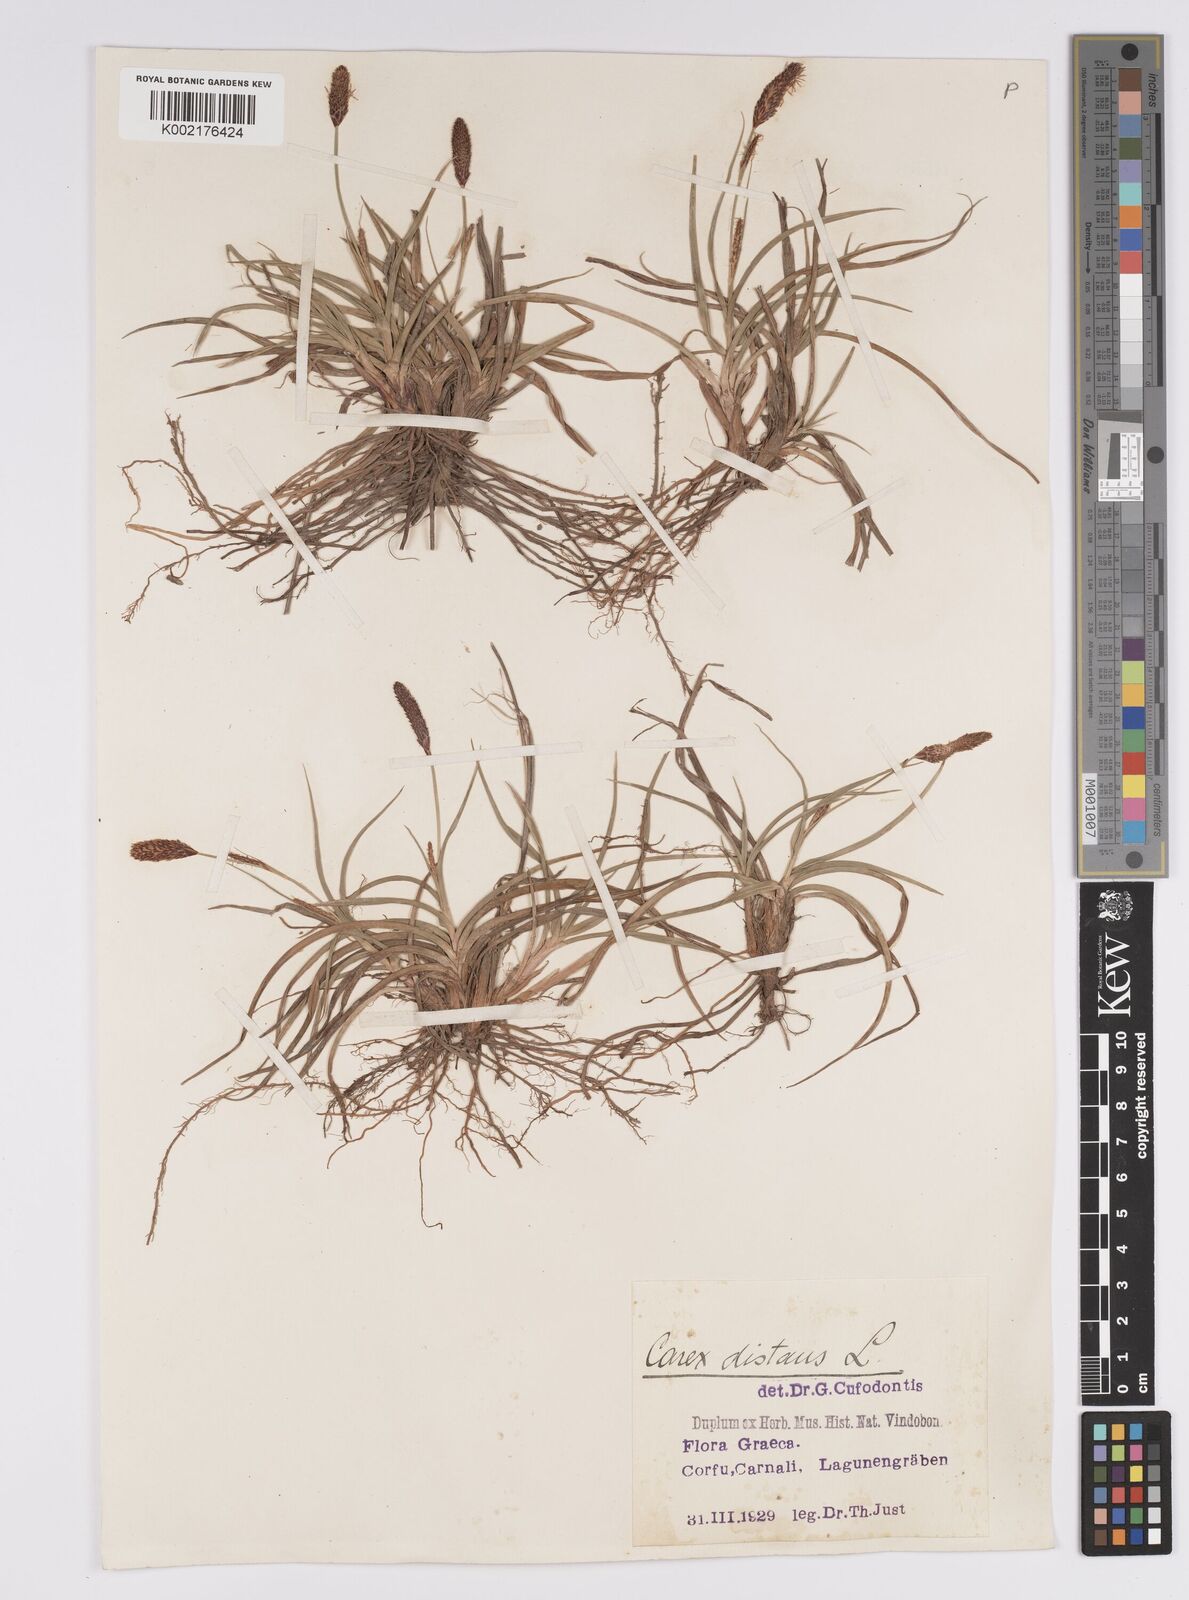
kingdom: Plantae
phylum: Tracheophyta
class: Liliopsida
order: Poales
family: Cyperaceae
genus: Carex
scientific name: Carex distans
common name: Distant sedge
